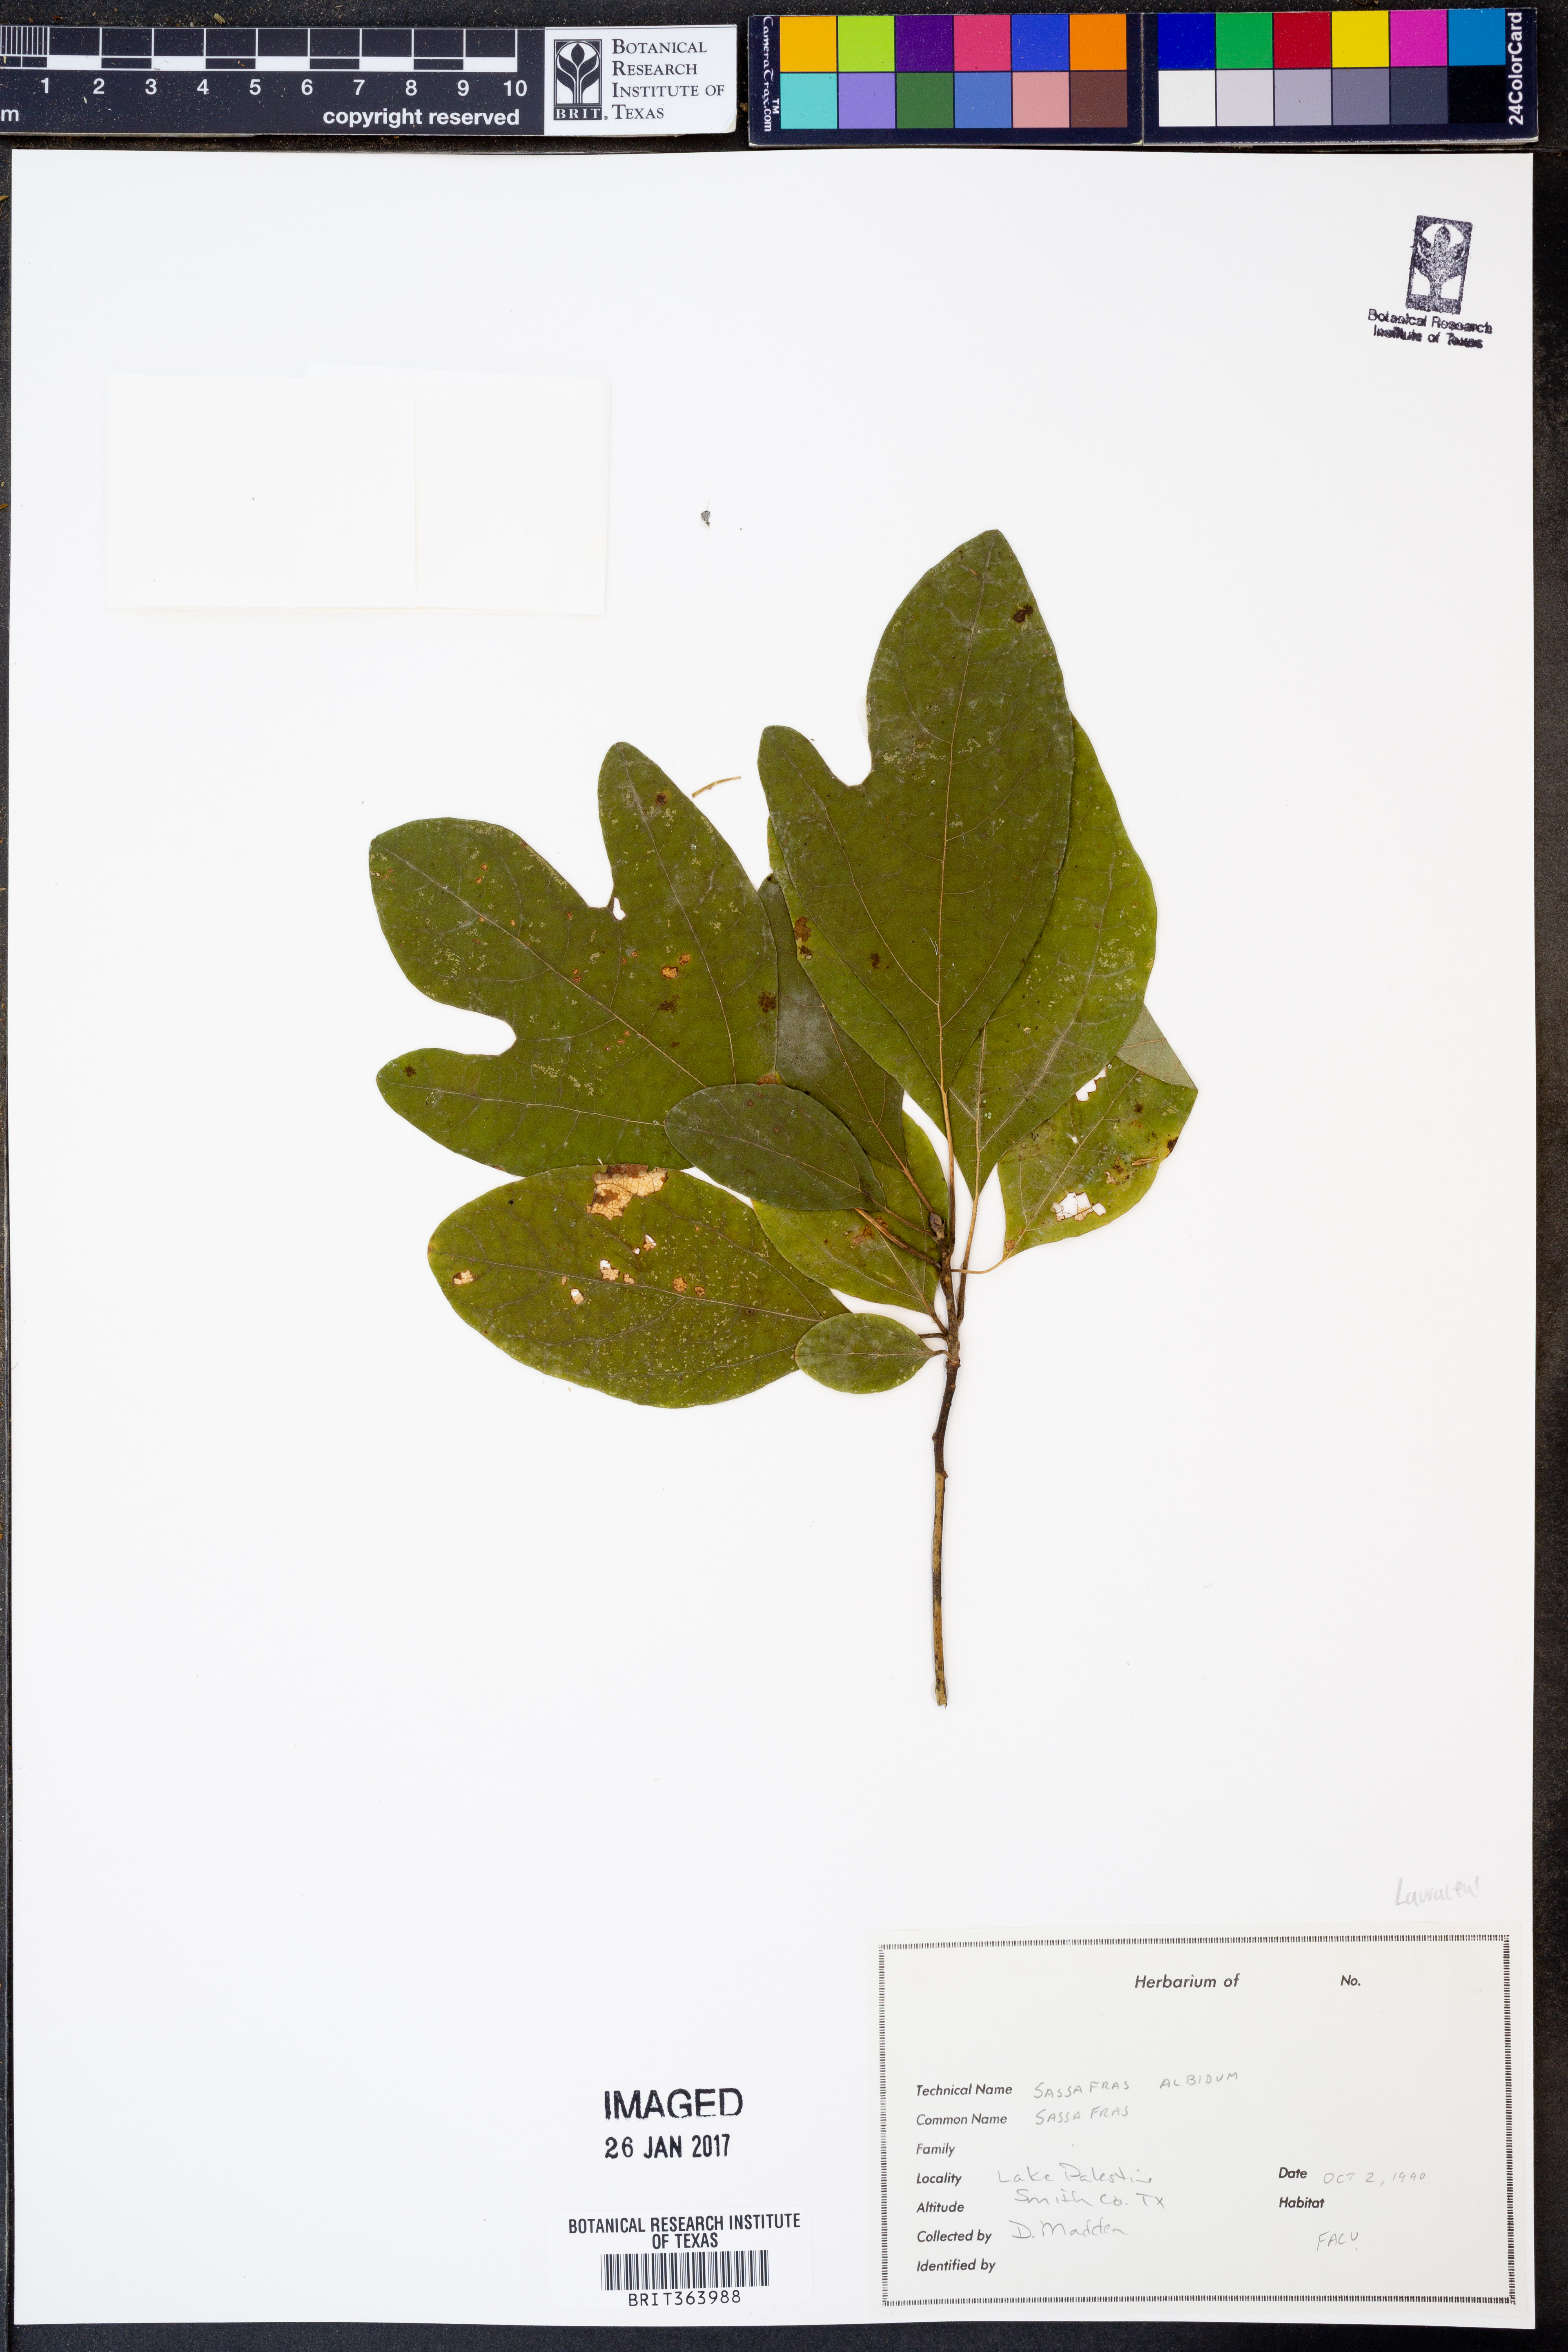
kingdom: Plantae
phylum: Tracheophyta
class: Magnoliopsida
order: Laurales
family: Lauraceae
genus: Sassafras
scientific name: Sassafras albidum
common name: Sassafras
